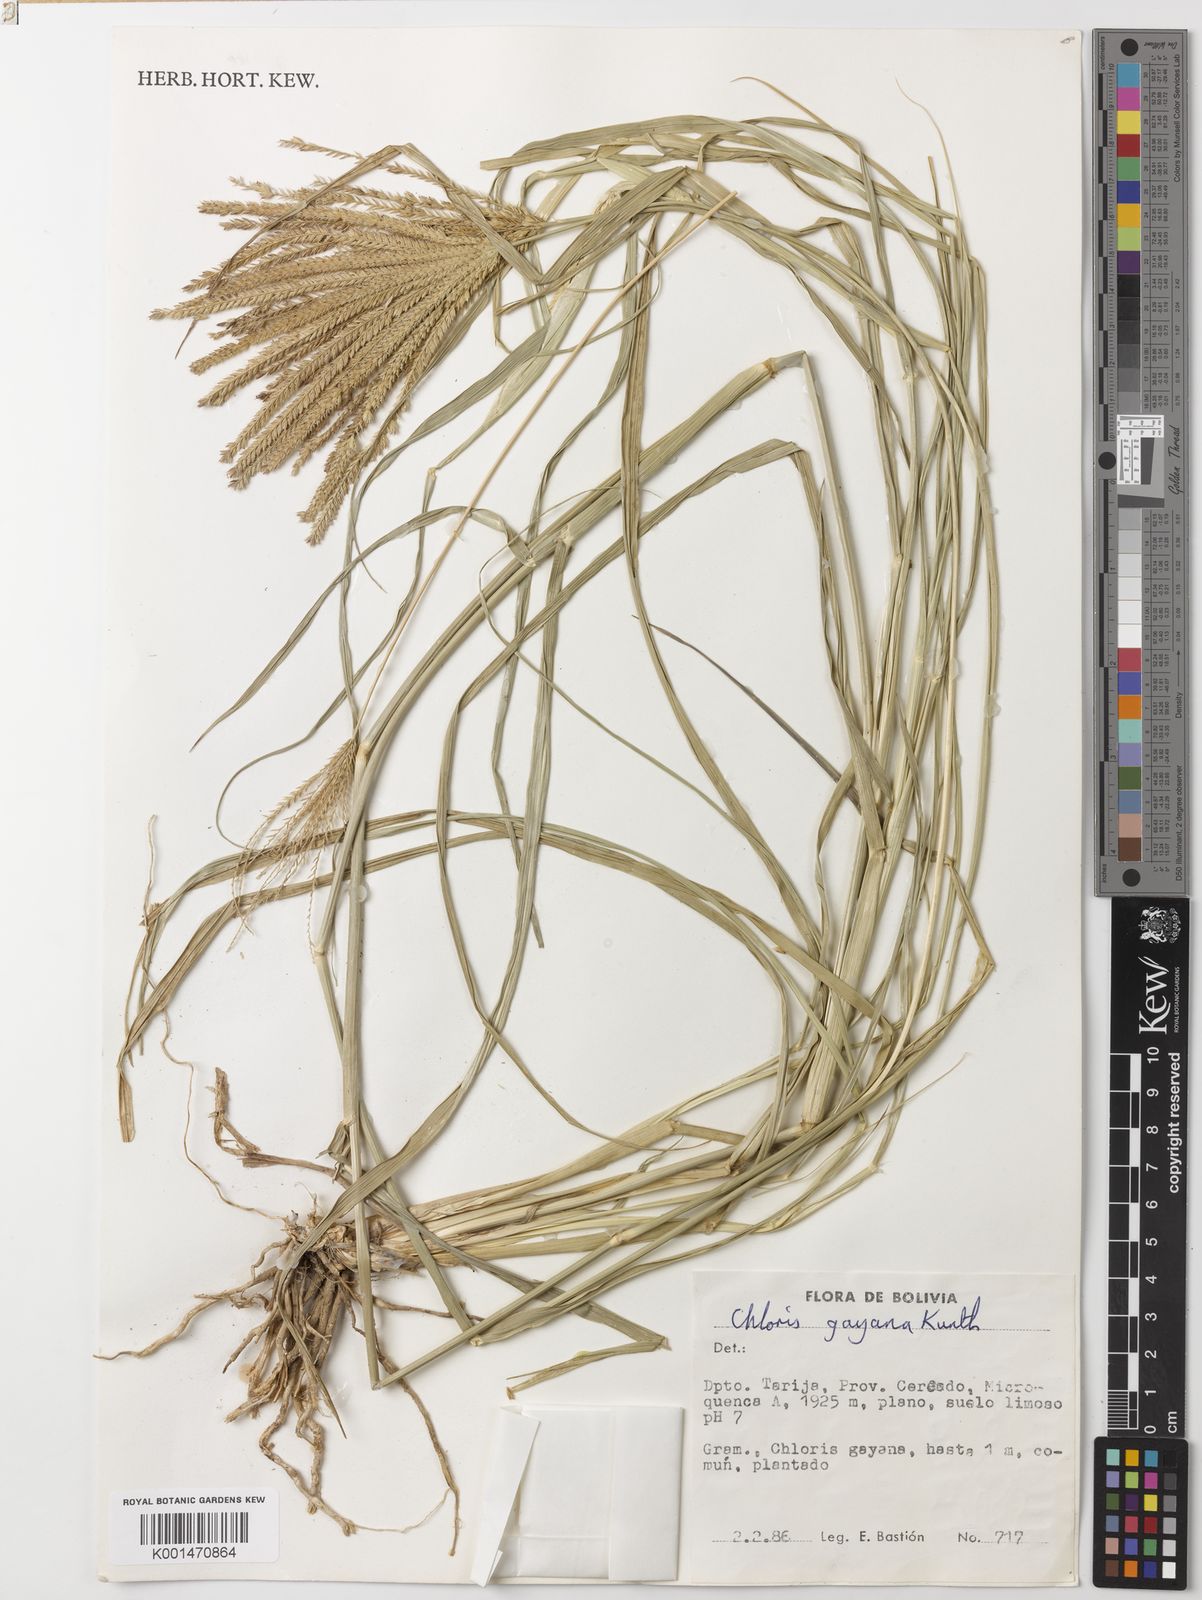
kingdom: Plantae
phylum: Tracheophyta
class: Liliopsida
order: Poales
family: Poaceae
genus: Chloris
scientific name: Chloris gayana
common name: Rhodes grass
